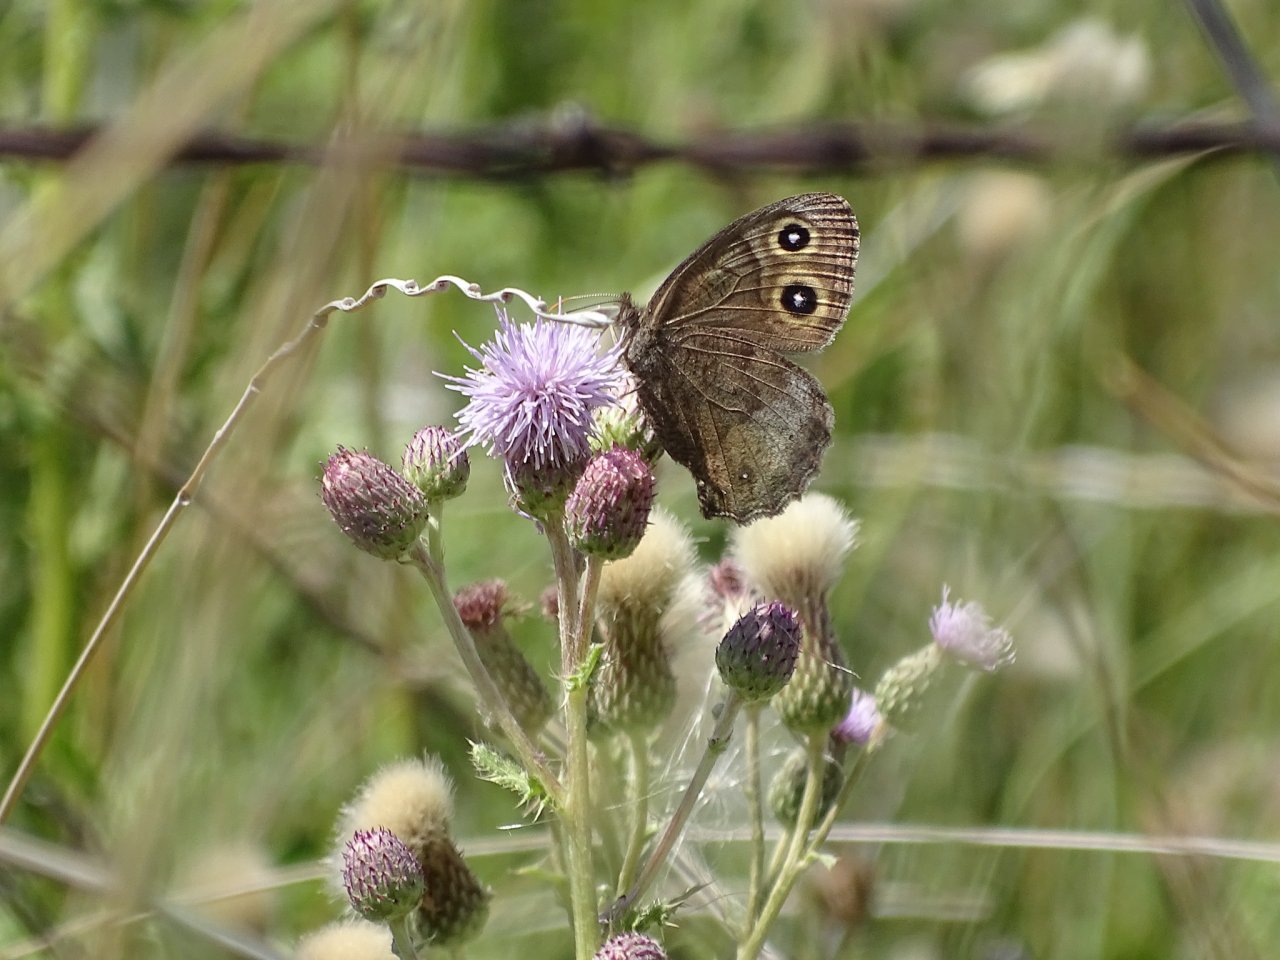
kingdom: Animalia
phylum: Arthropoda
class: Insecta
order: Lepidoptera
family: Nymphalidae
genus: Cercyonis
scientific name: Cercyonis pegala
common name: Common Wood-Nymph
